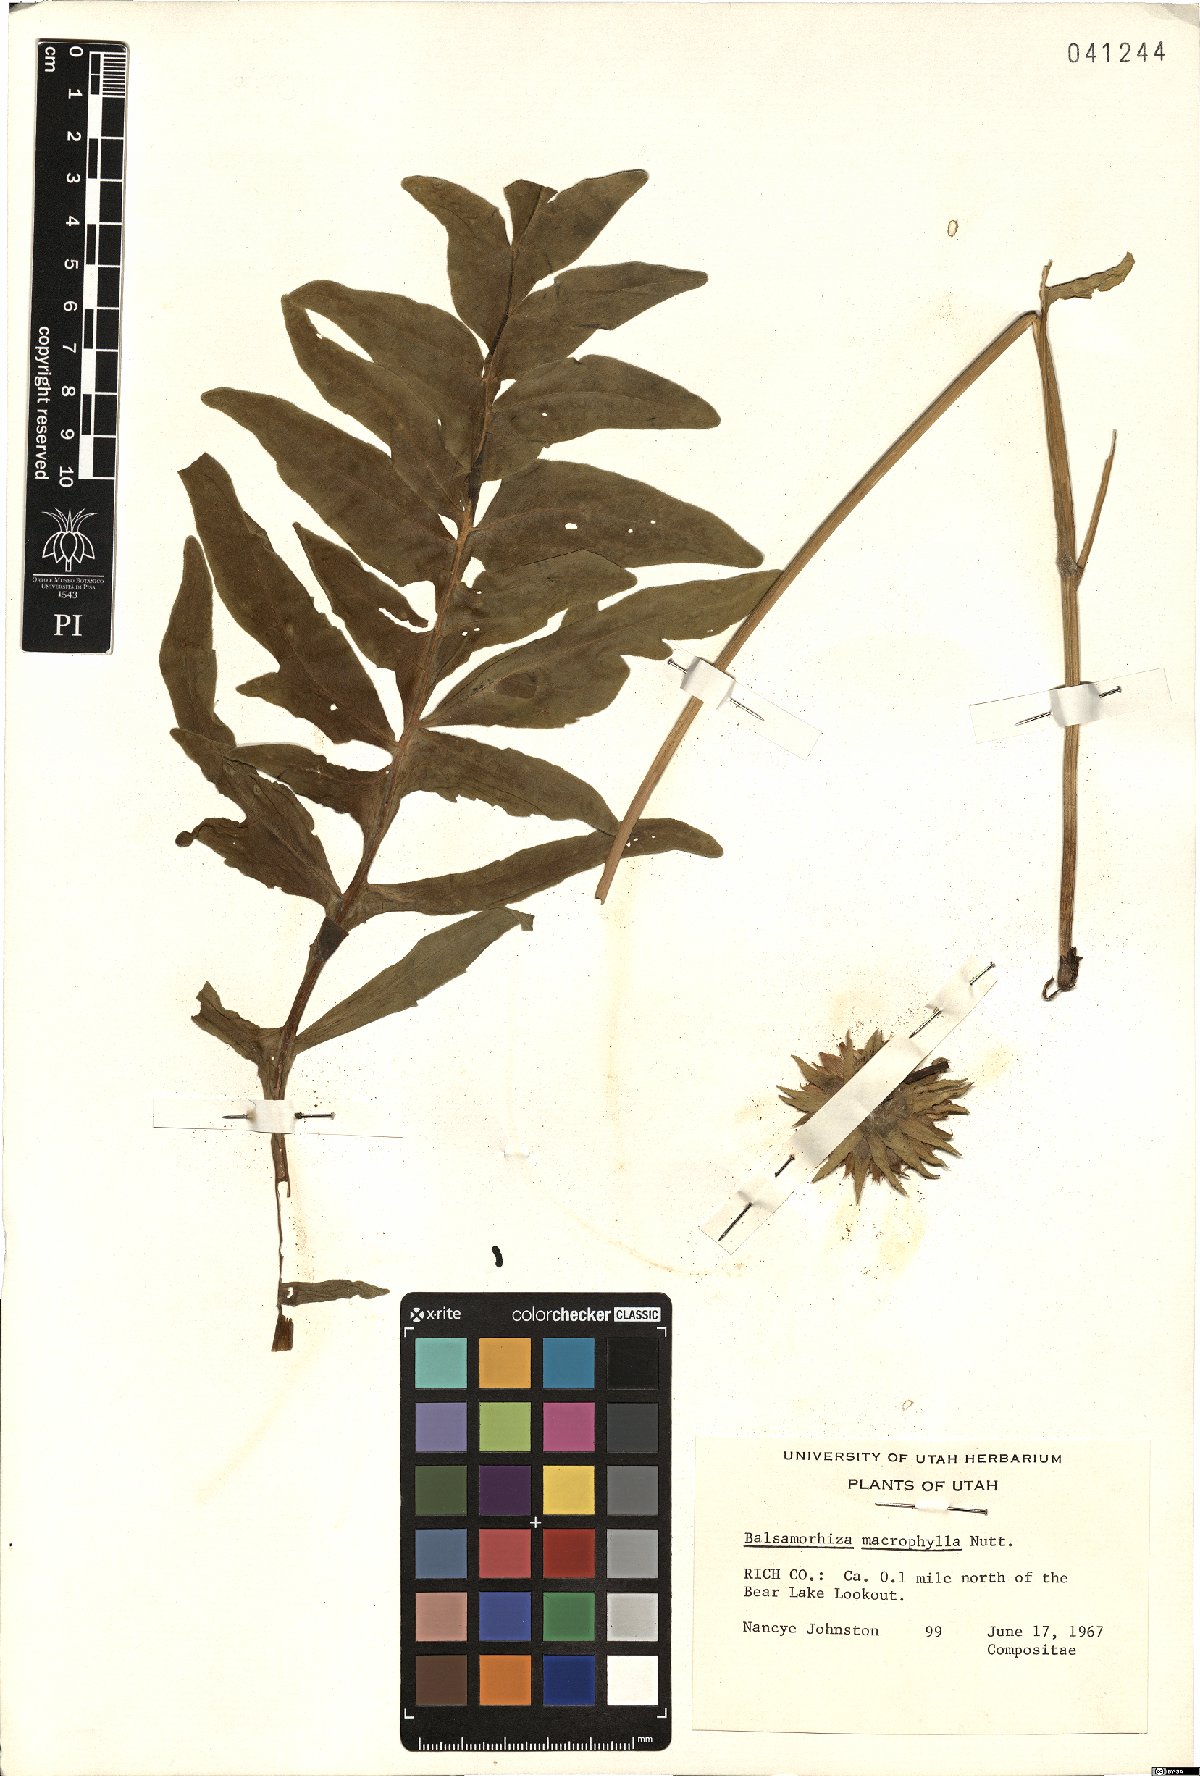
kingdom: Plantae
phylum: Tracheophyta
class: Magnoliopsida
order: Asterales
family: Asteraceae
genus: Balsamorhiza
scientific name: Balsamorhiza macrophylla
